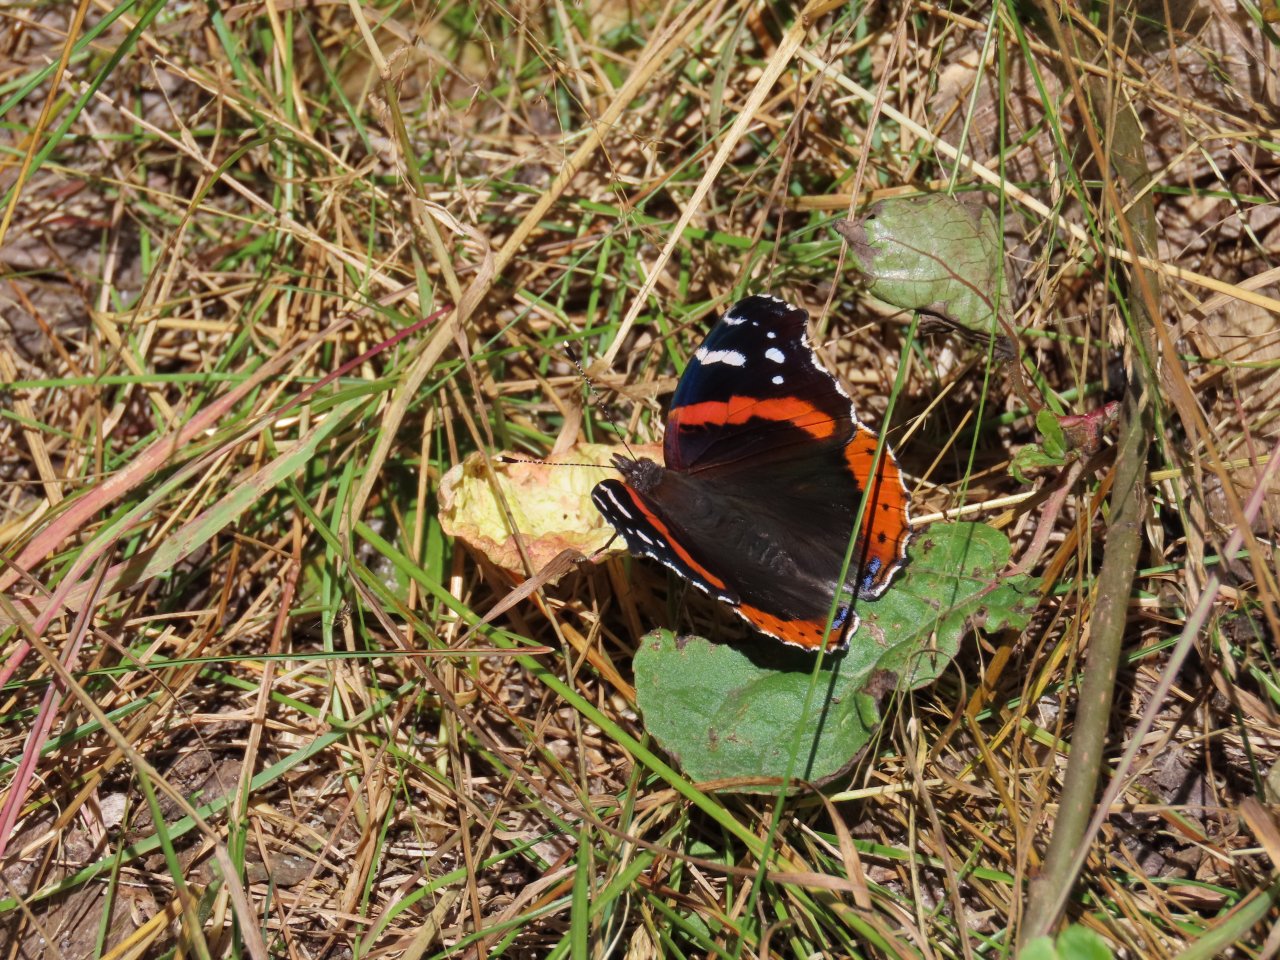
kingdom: Animalia
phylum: Arthropoda
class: Insecta
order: Lepidoptera
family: Nymphalidae
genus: Vanessa
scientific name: Vanessa atalanta
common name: Red Admiral
